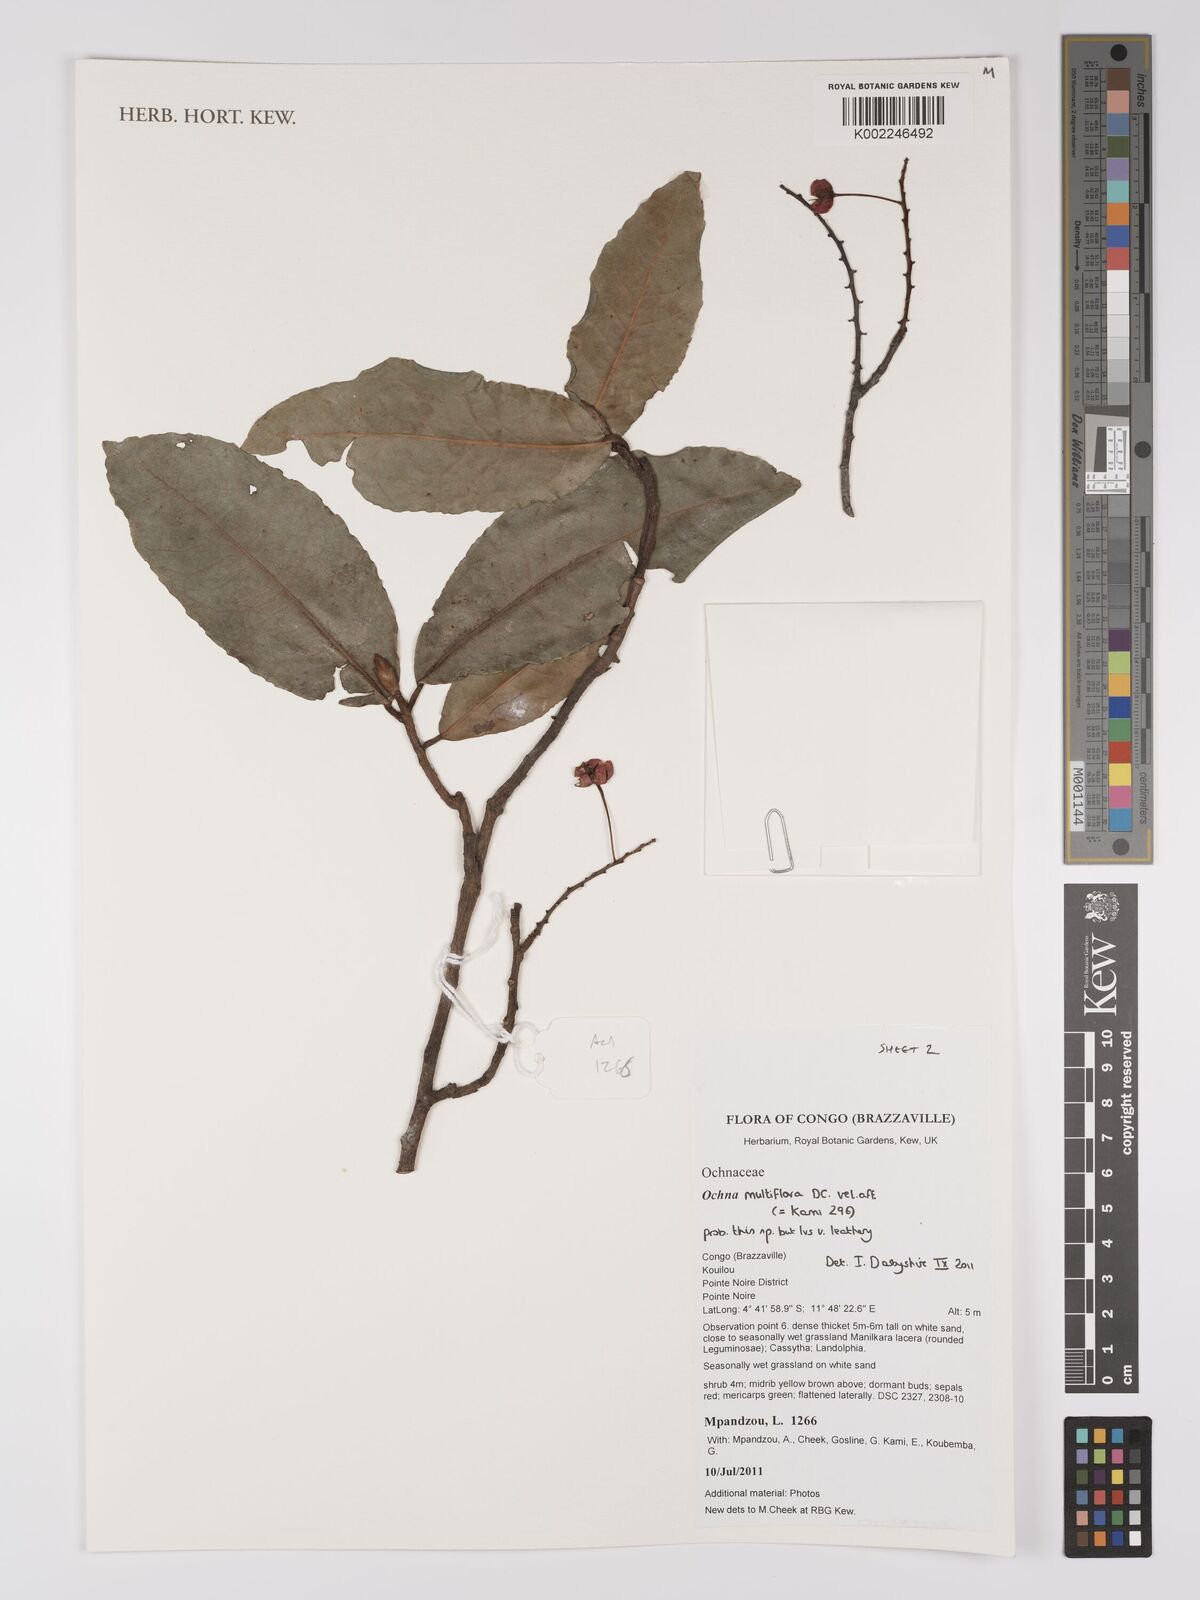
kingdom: Plantae
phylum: Tracheophyta
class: Magnoliopsida
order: Malpighiales
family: Ochnaceae
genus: Ochna
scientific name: Ochna multiflora
